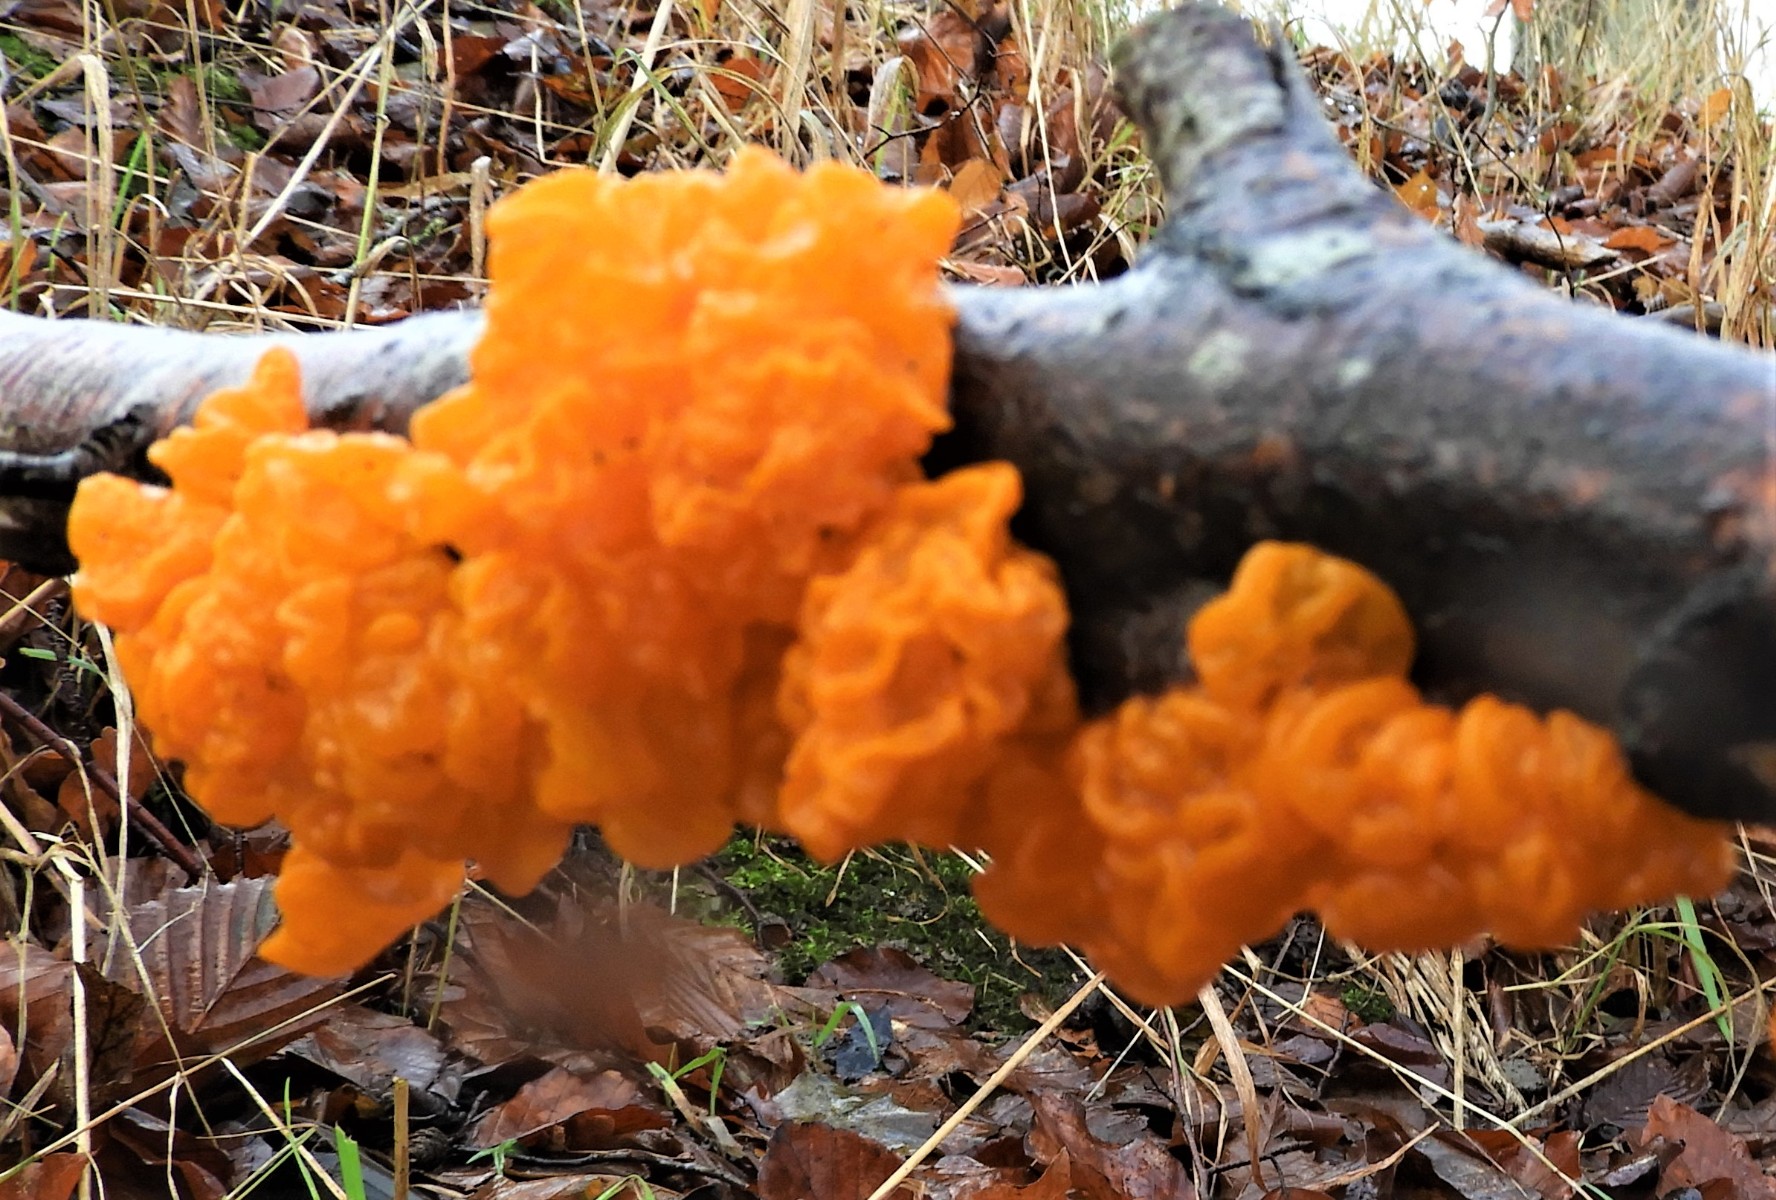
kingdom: Fungi
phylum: Basidiomycota
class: Tremellomycetes
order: Tremellales
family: Tremellaceae
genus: Tremella
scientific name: Tremella mesenterica
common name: gul bævresvamp
